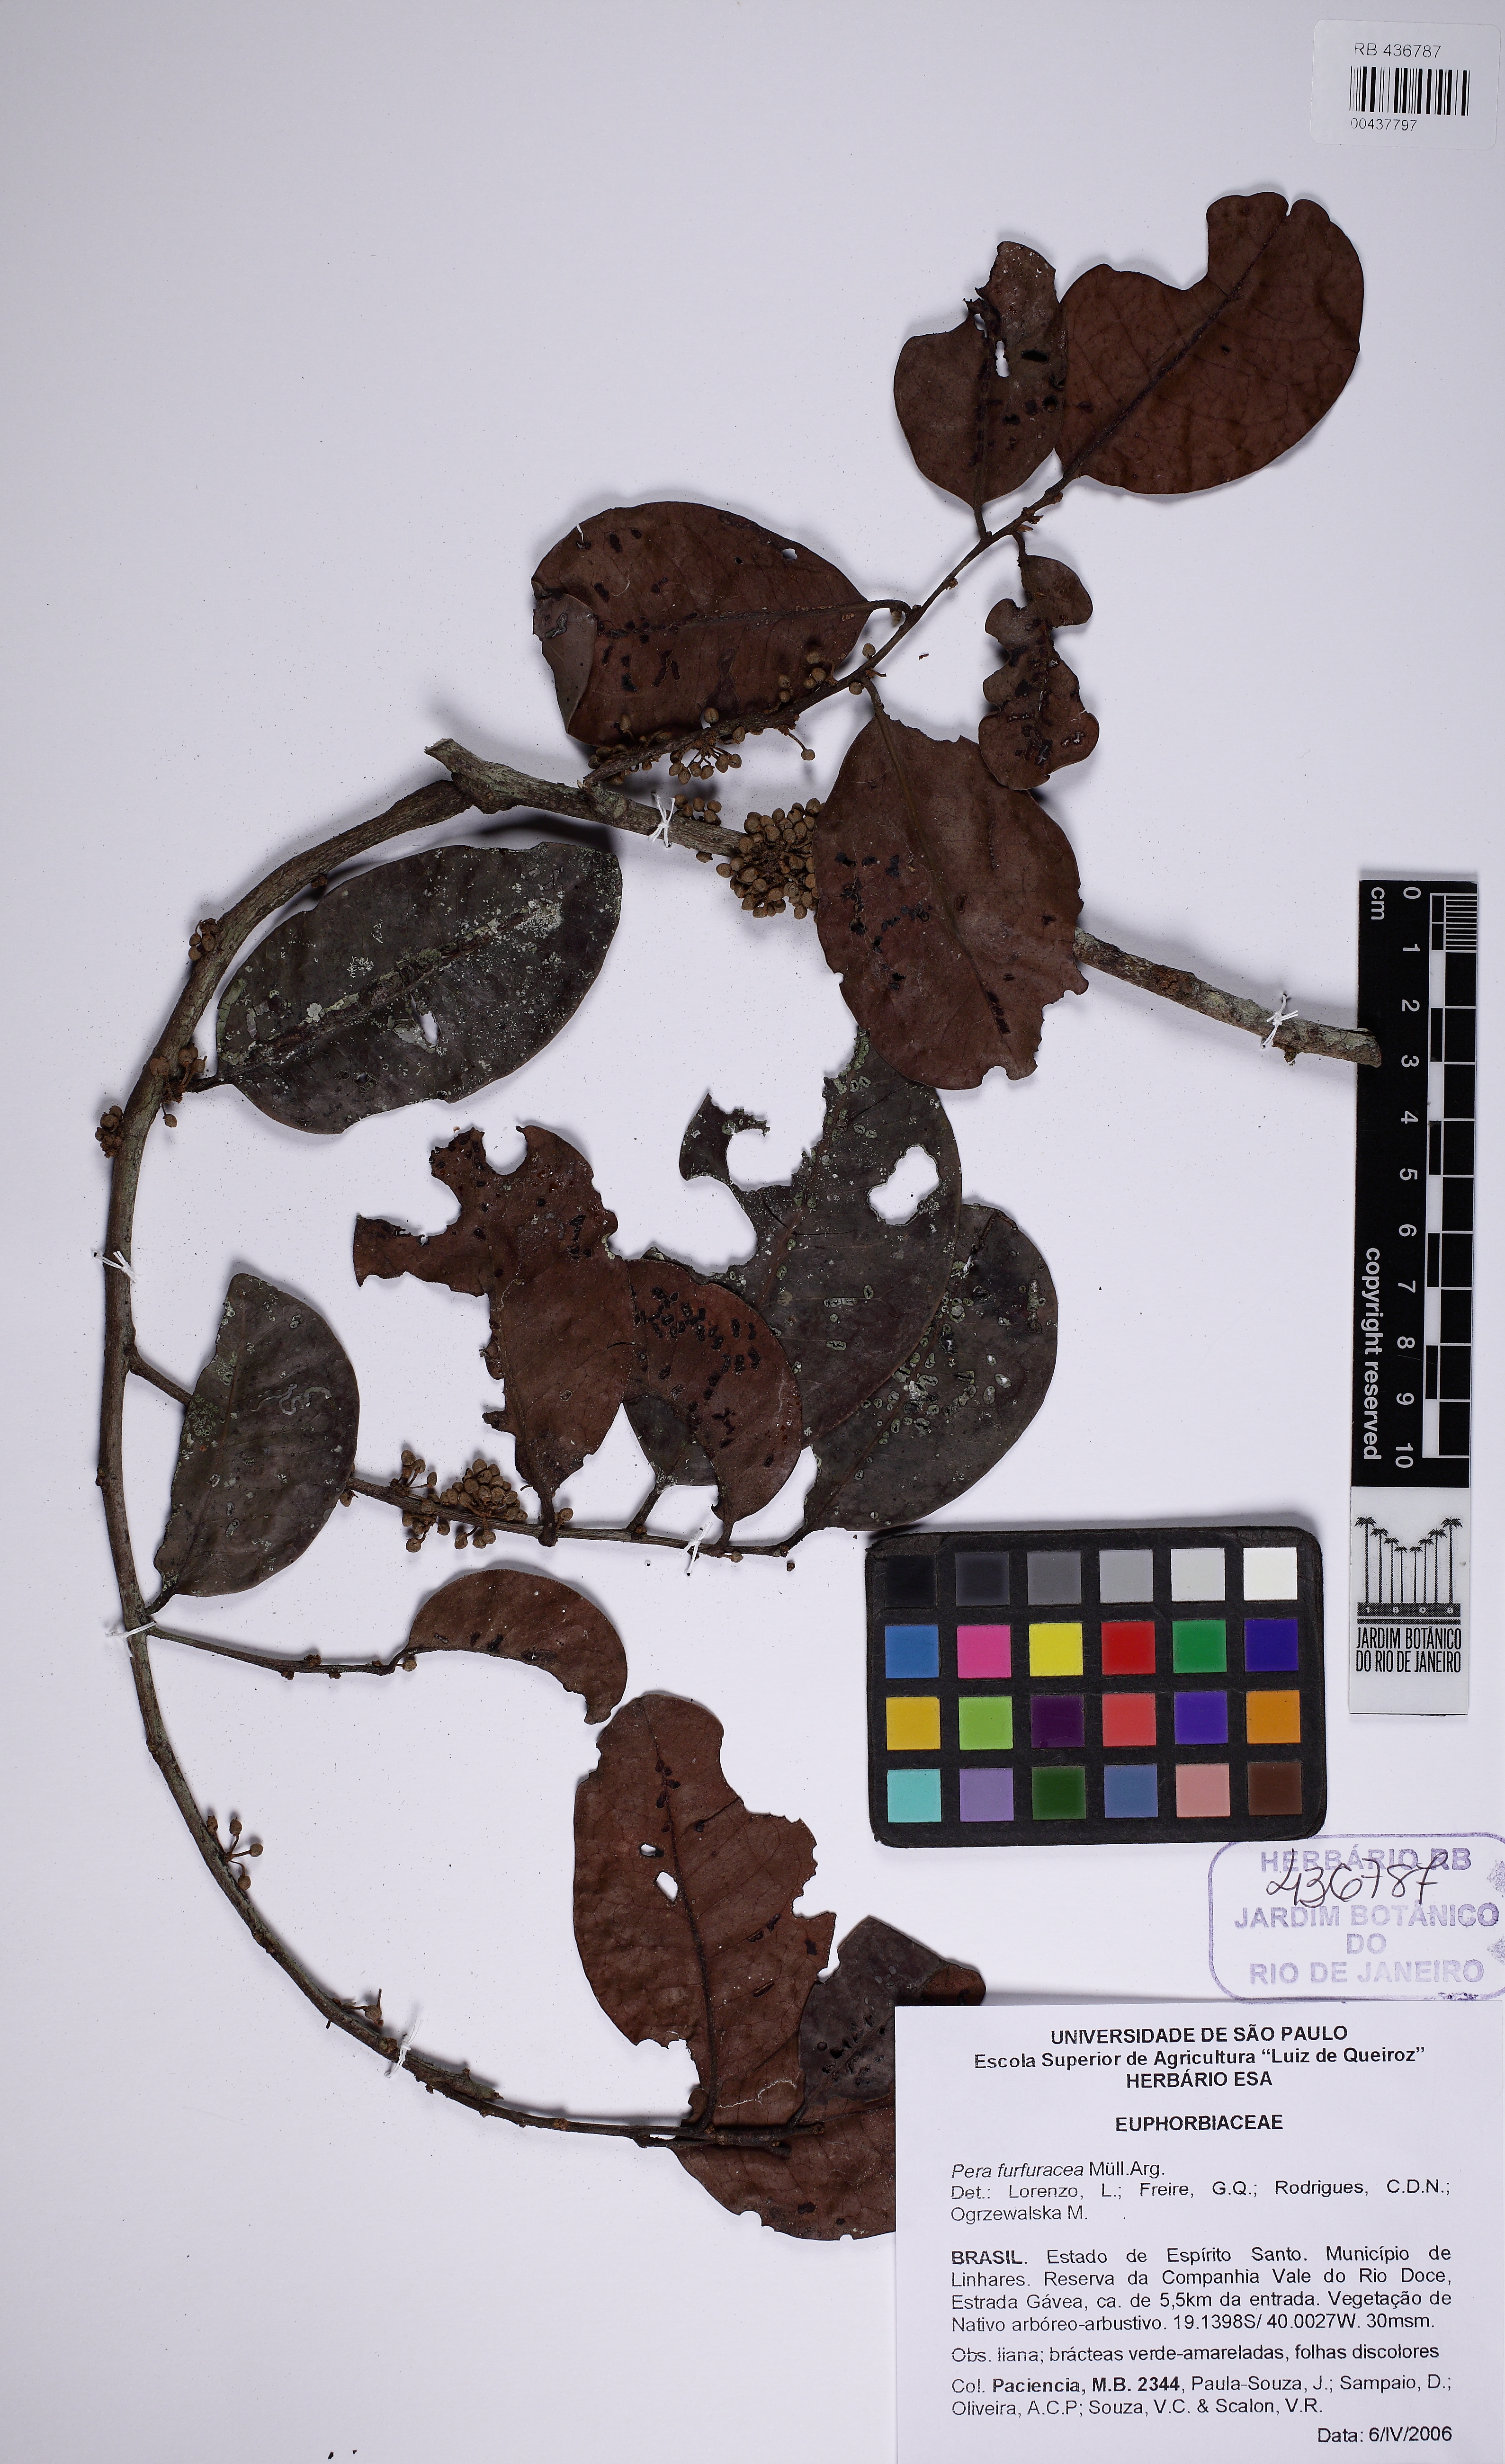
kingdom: Plantae
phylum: Tracheophyta
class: Magnoliopsida
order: Malpighiales
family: Peraceae
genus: Pera
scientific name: Pera
